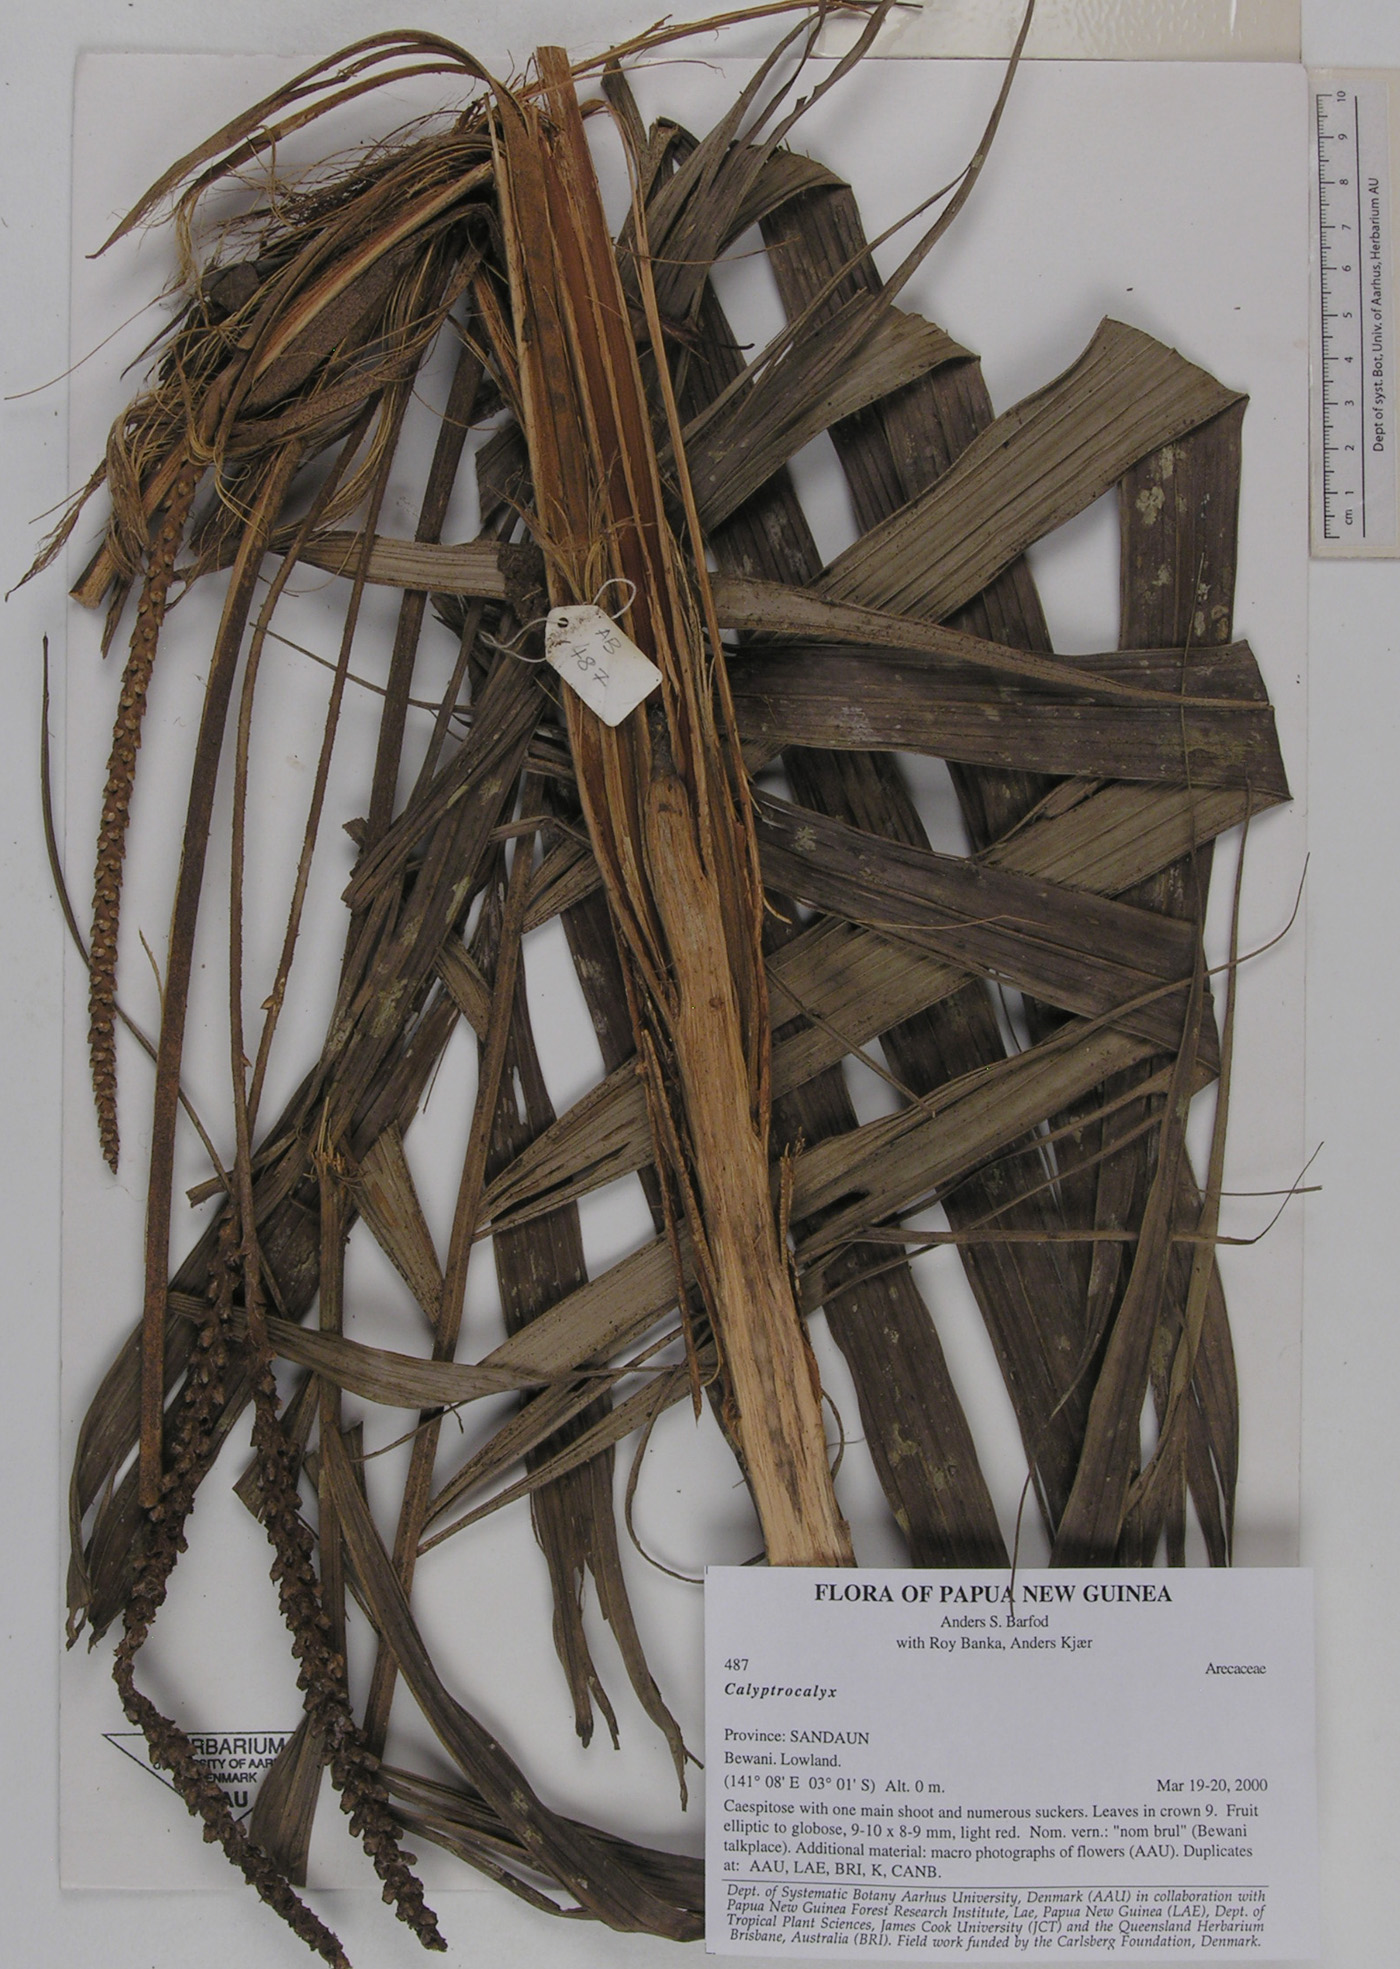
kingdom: Plantae
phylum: Tracheophyta
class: Liliopsida
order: Arecales
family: Arecaceae
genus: Calyptrocalyx
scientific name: Calyptrocalyx
